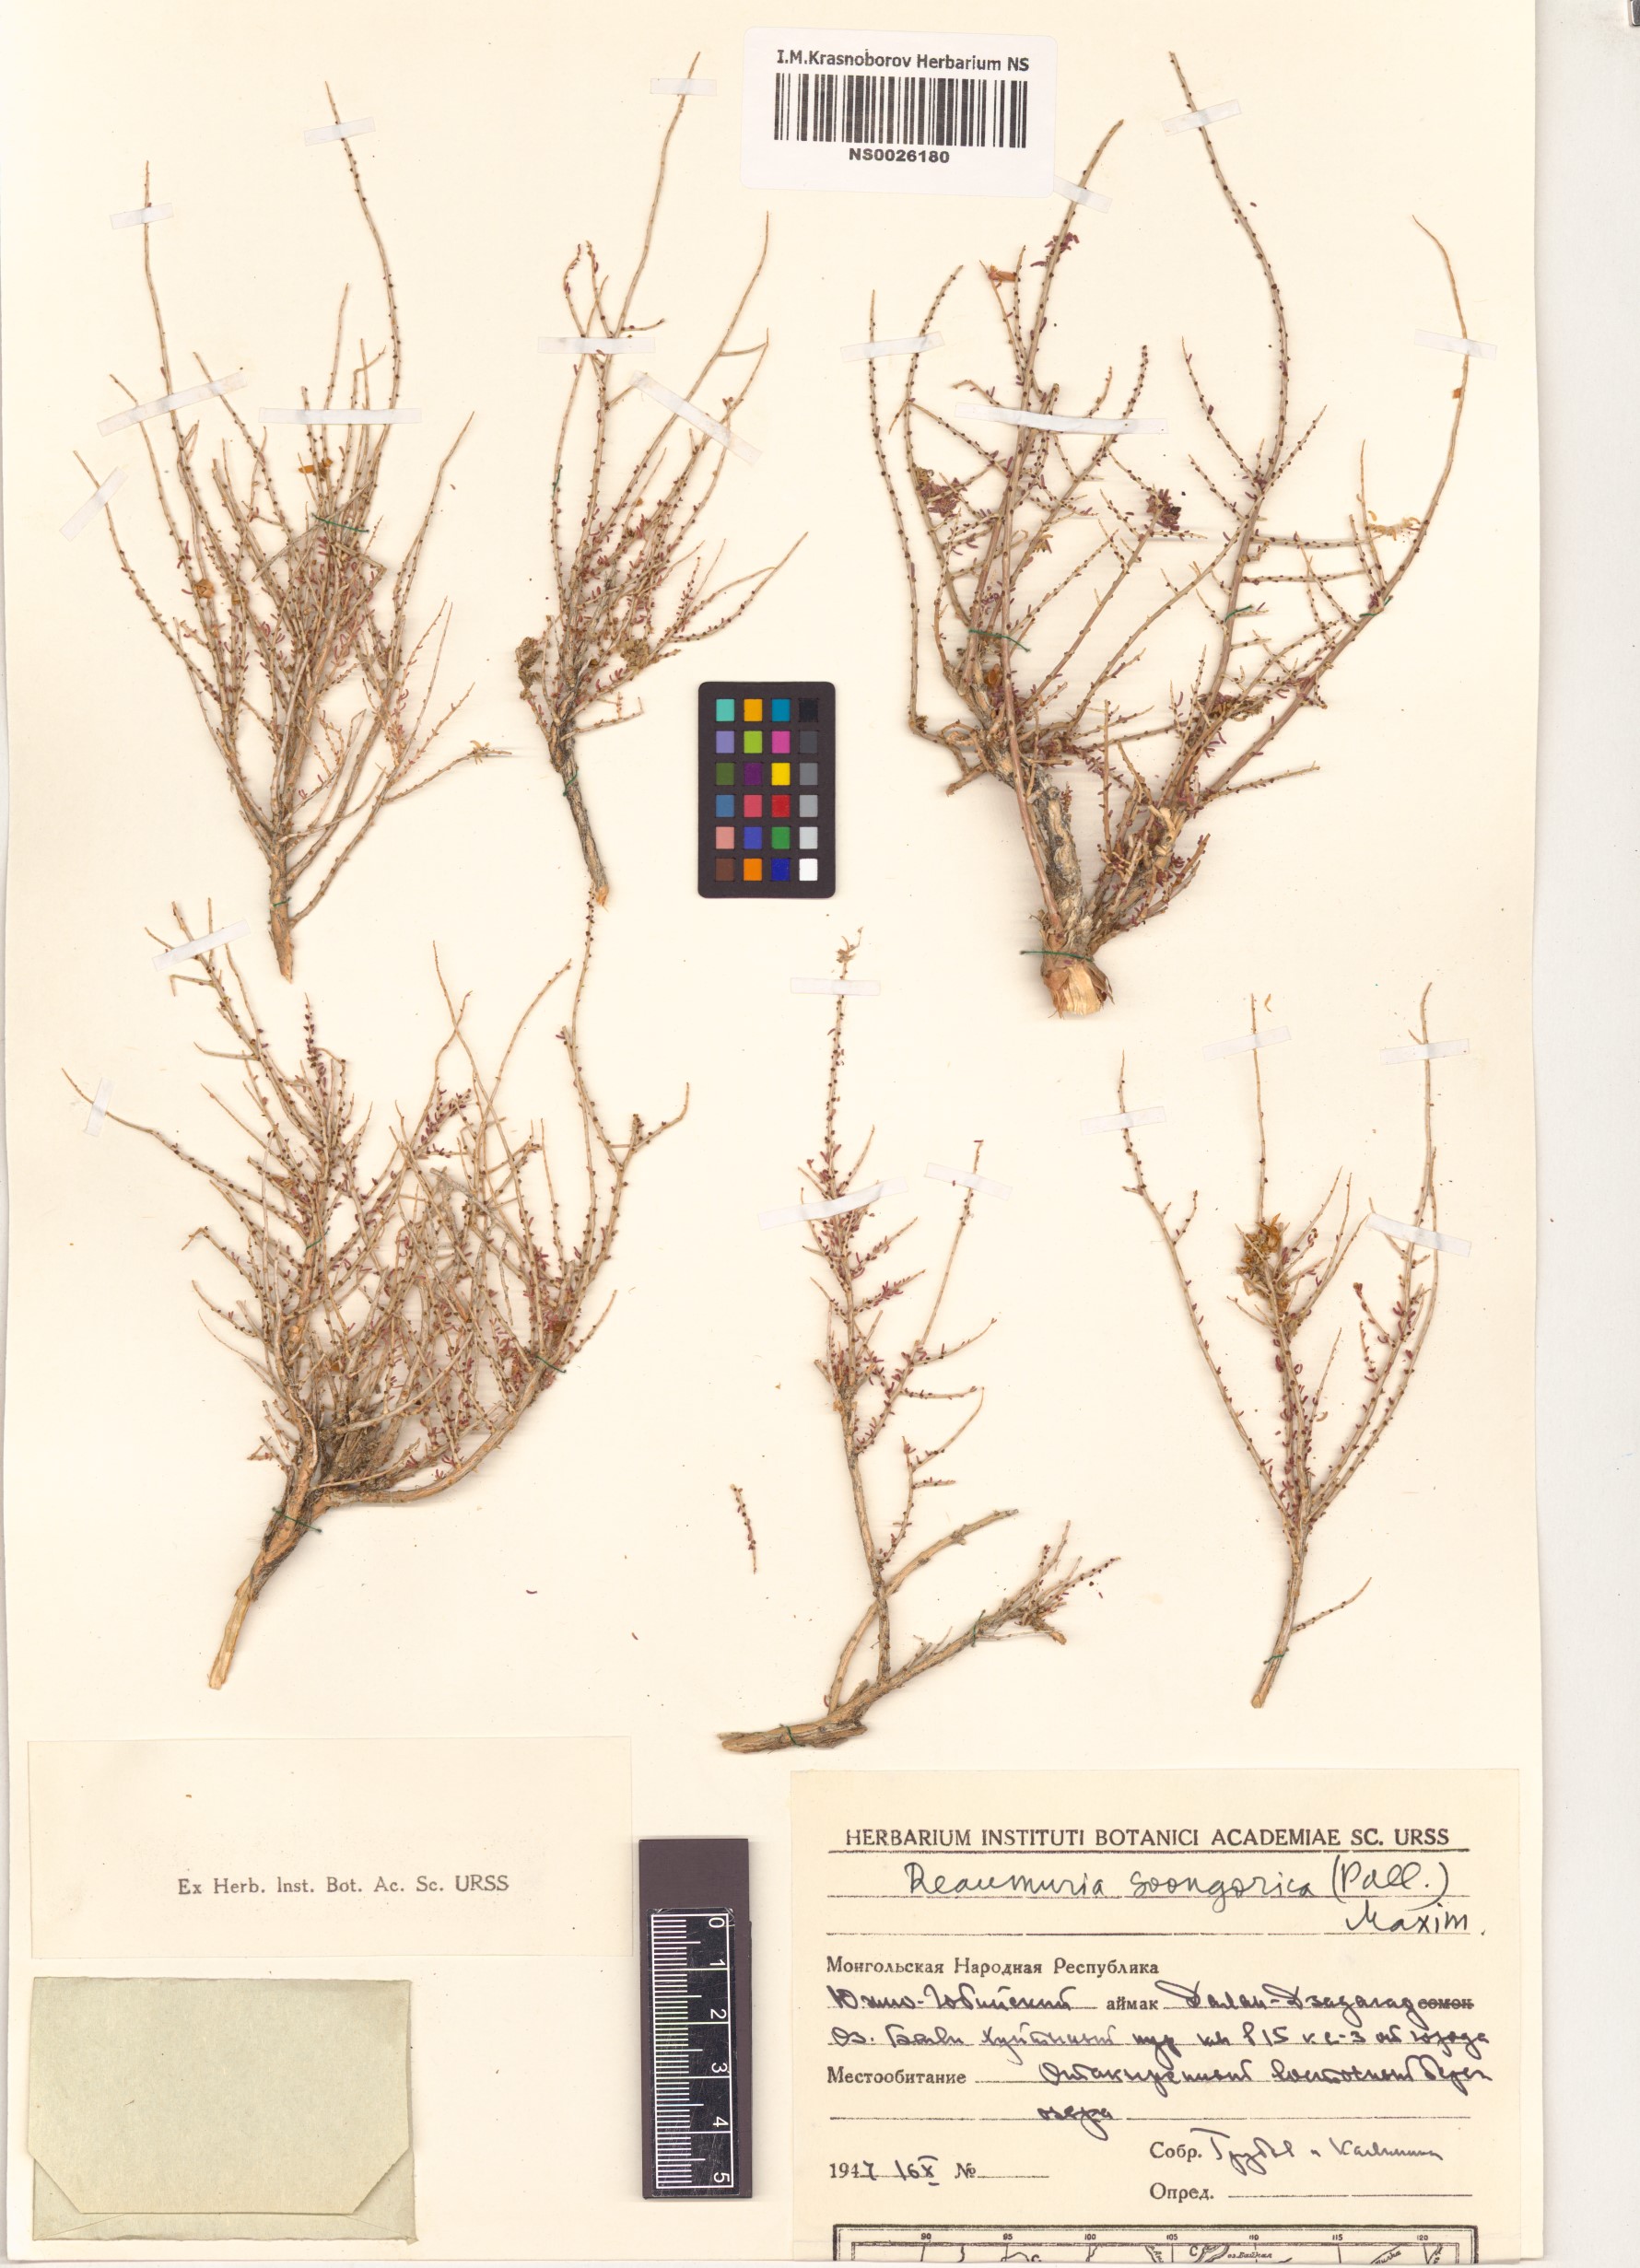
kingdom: Plantae
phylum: Tracheophyta
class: Magnoliopsida
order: Caryophyllales
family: Tamaricaceae
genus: Reaumuria
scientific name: Reaumuria songarica
